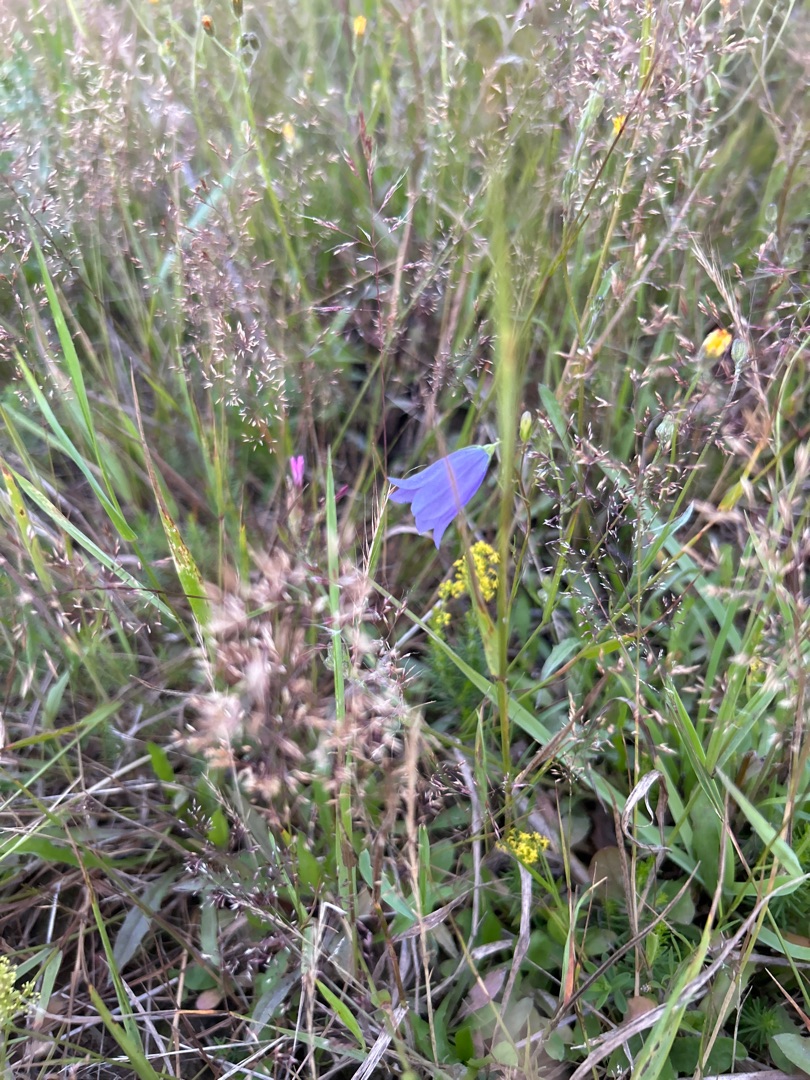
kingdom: Plantae
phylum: Tracheophyta
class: Magnoliopsida
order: Gentianales
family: Rubiaceae
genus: Galium
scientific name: Galium verum
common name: Gul snerre
